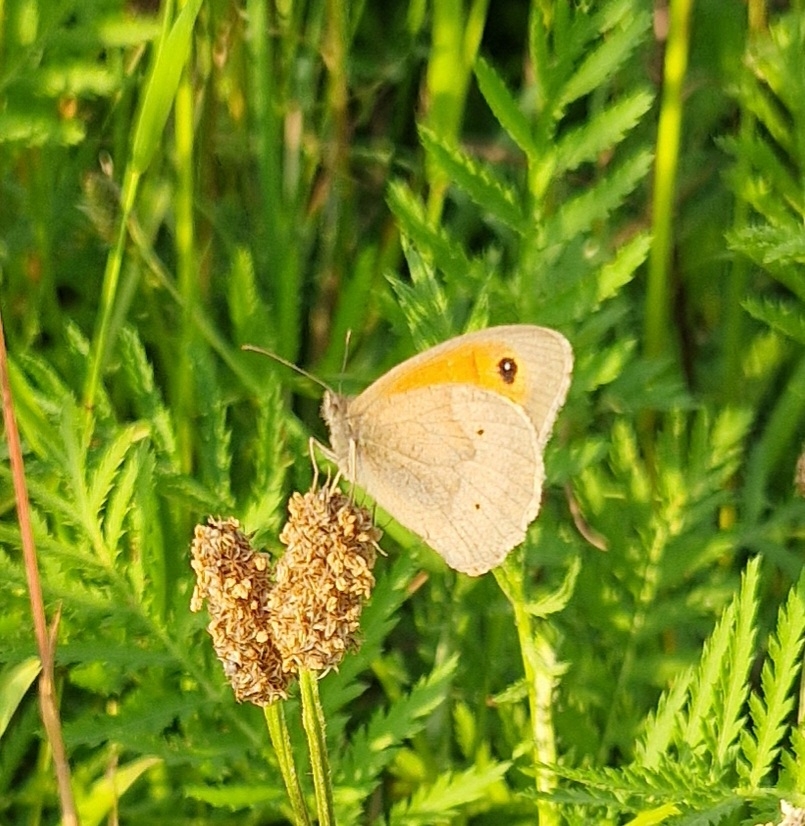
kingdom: Animalia
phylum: Arthropoda
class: Insecta
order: Lepidoptera
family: Nymphalidae
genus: Maniola
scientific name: Maniola jurtina
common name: Græsrandøje
